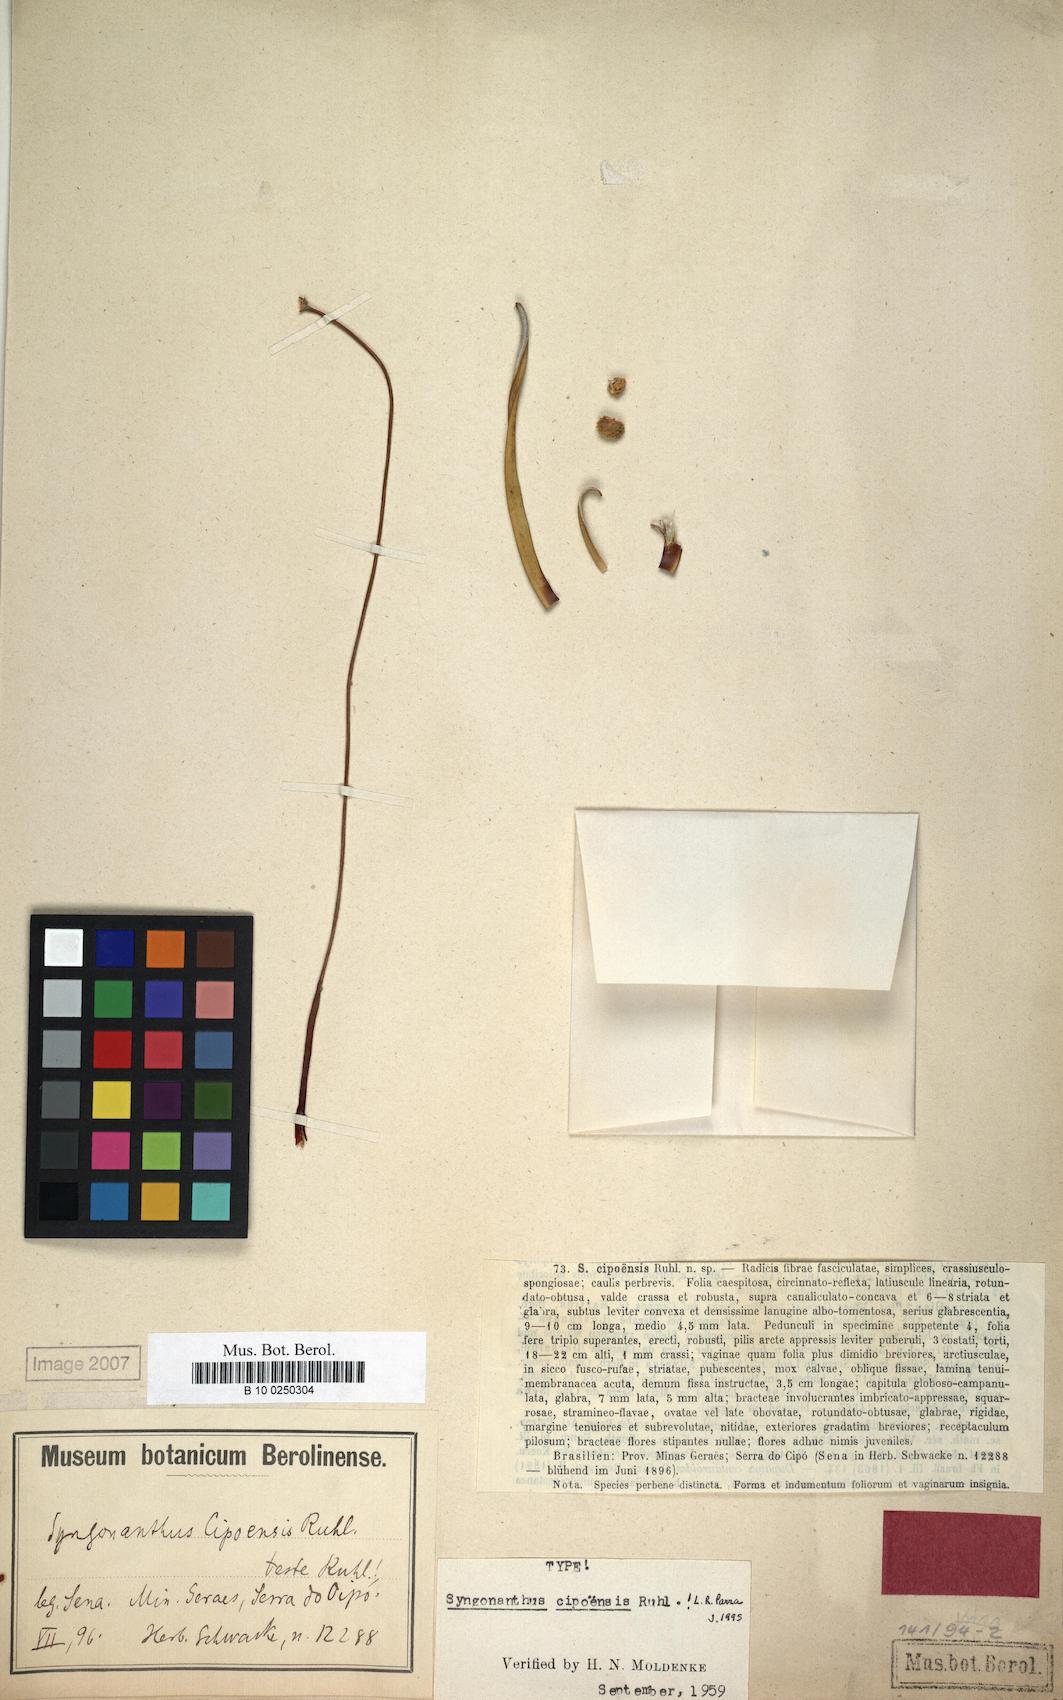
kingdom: Plantae
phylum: Tracheophyta
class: Liliopsida
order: Poales
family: Eriocaulaceae
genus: Comanthera
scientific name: Comanthera cipoensis
